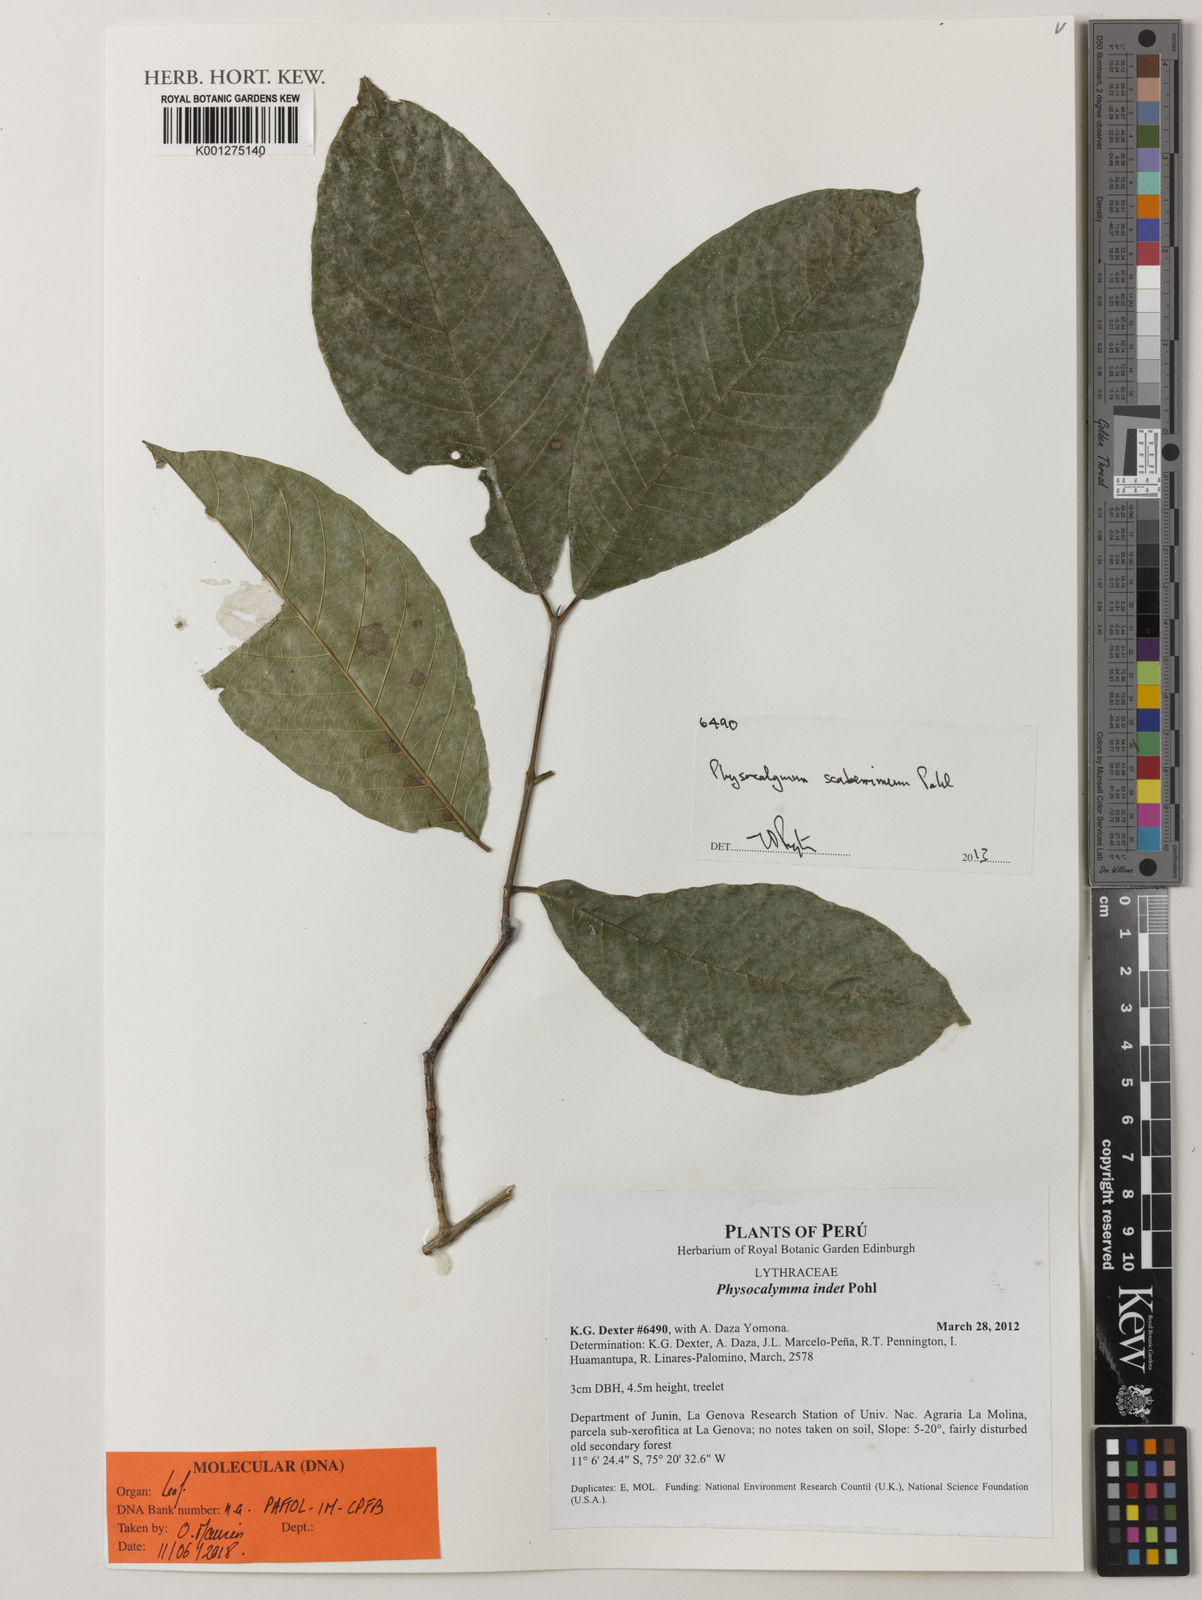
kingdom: Plantae
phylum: Tracheophyta
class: Magnoliopsida
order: Myrtales
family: Lythraceae
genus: Physocalymma
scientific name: Physocalymma scaberrimum
